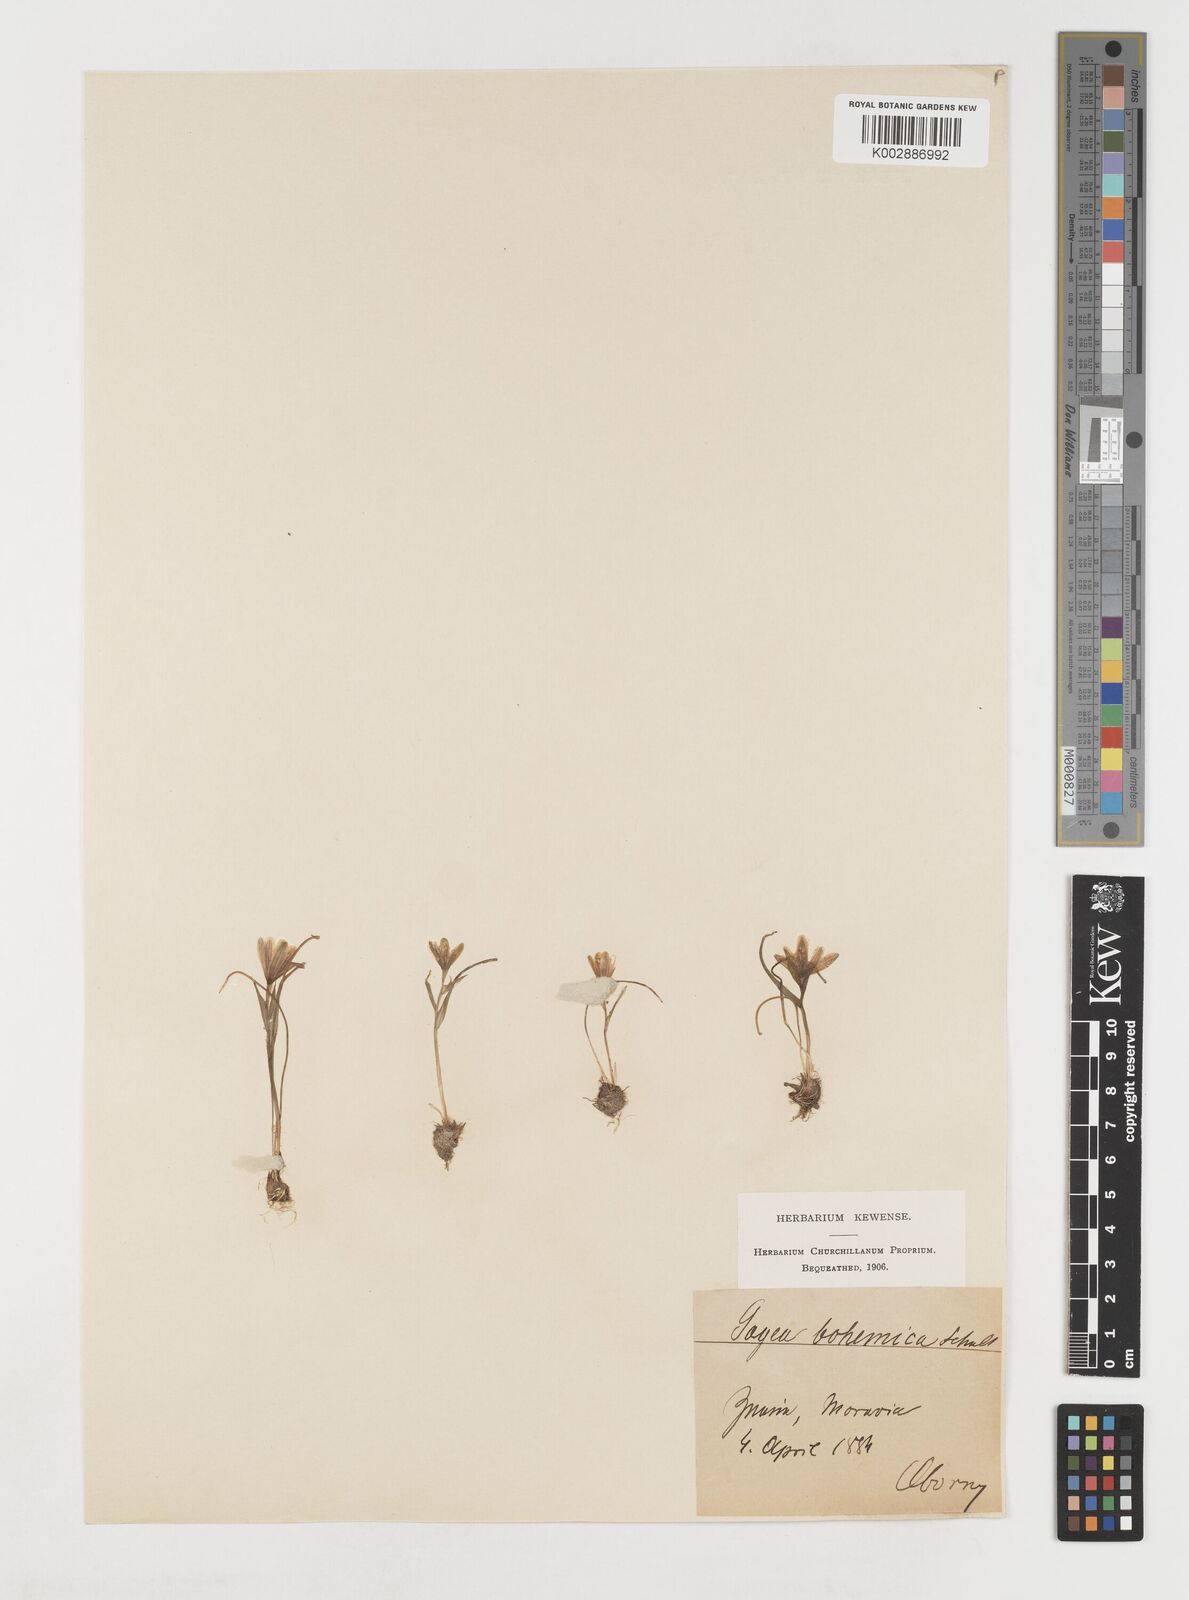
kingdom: Plantae
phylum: Tracheophyta
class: Liliopsida
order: Liliales
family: Liliaceae
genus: Gagea
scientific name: Gagea bohemica
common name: Early star-of-bethlehem
